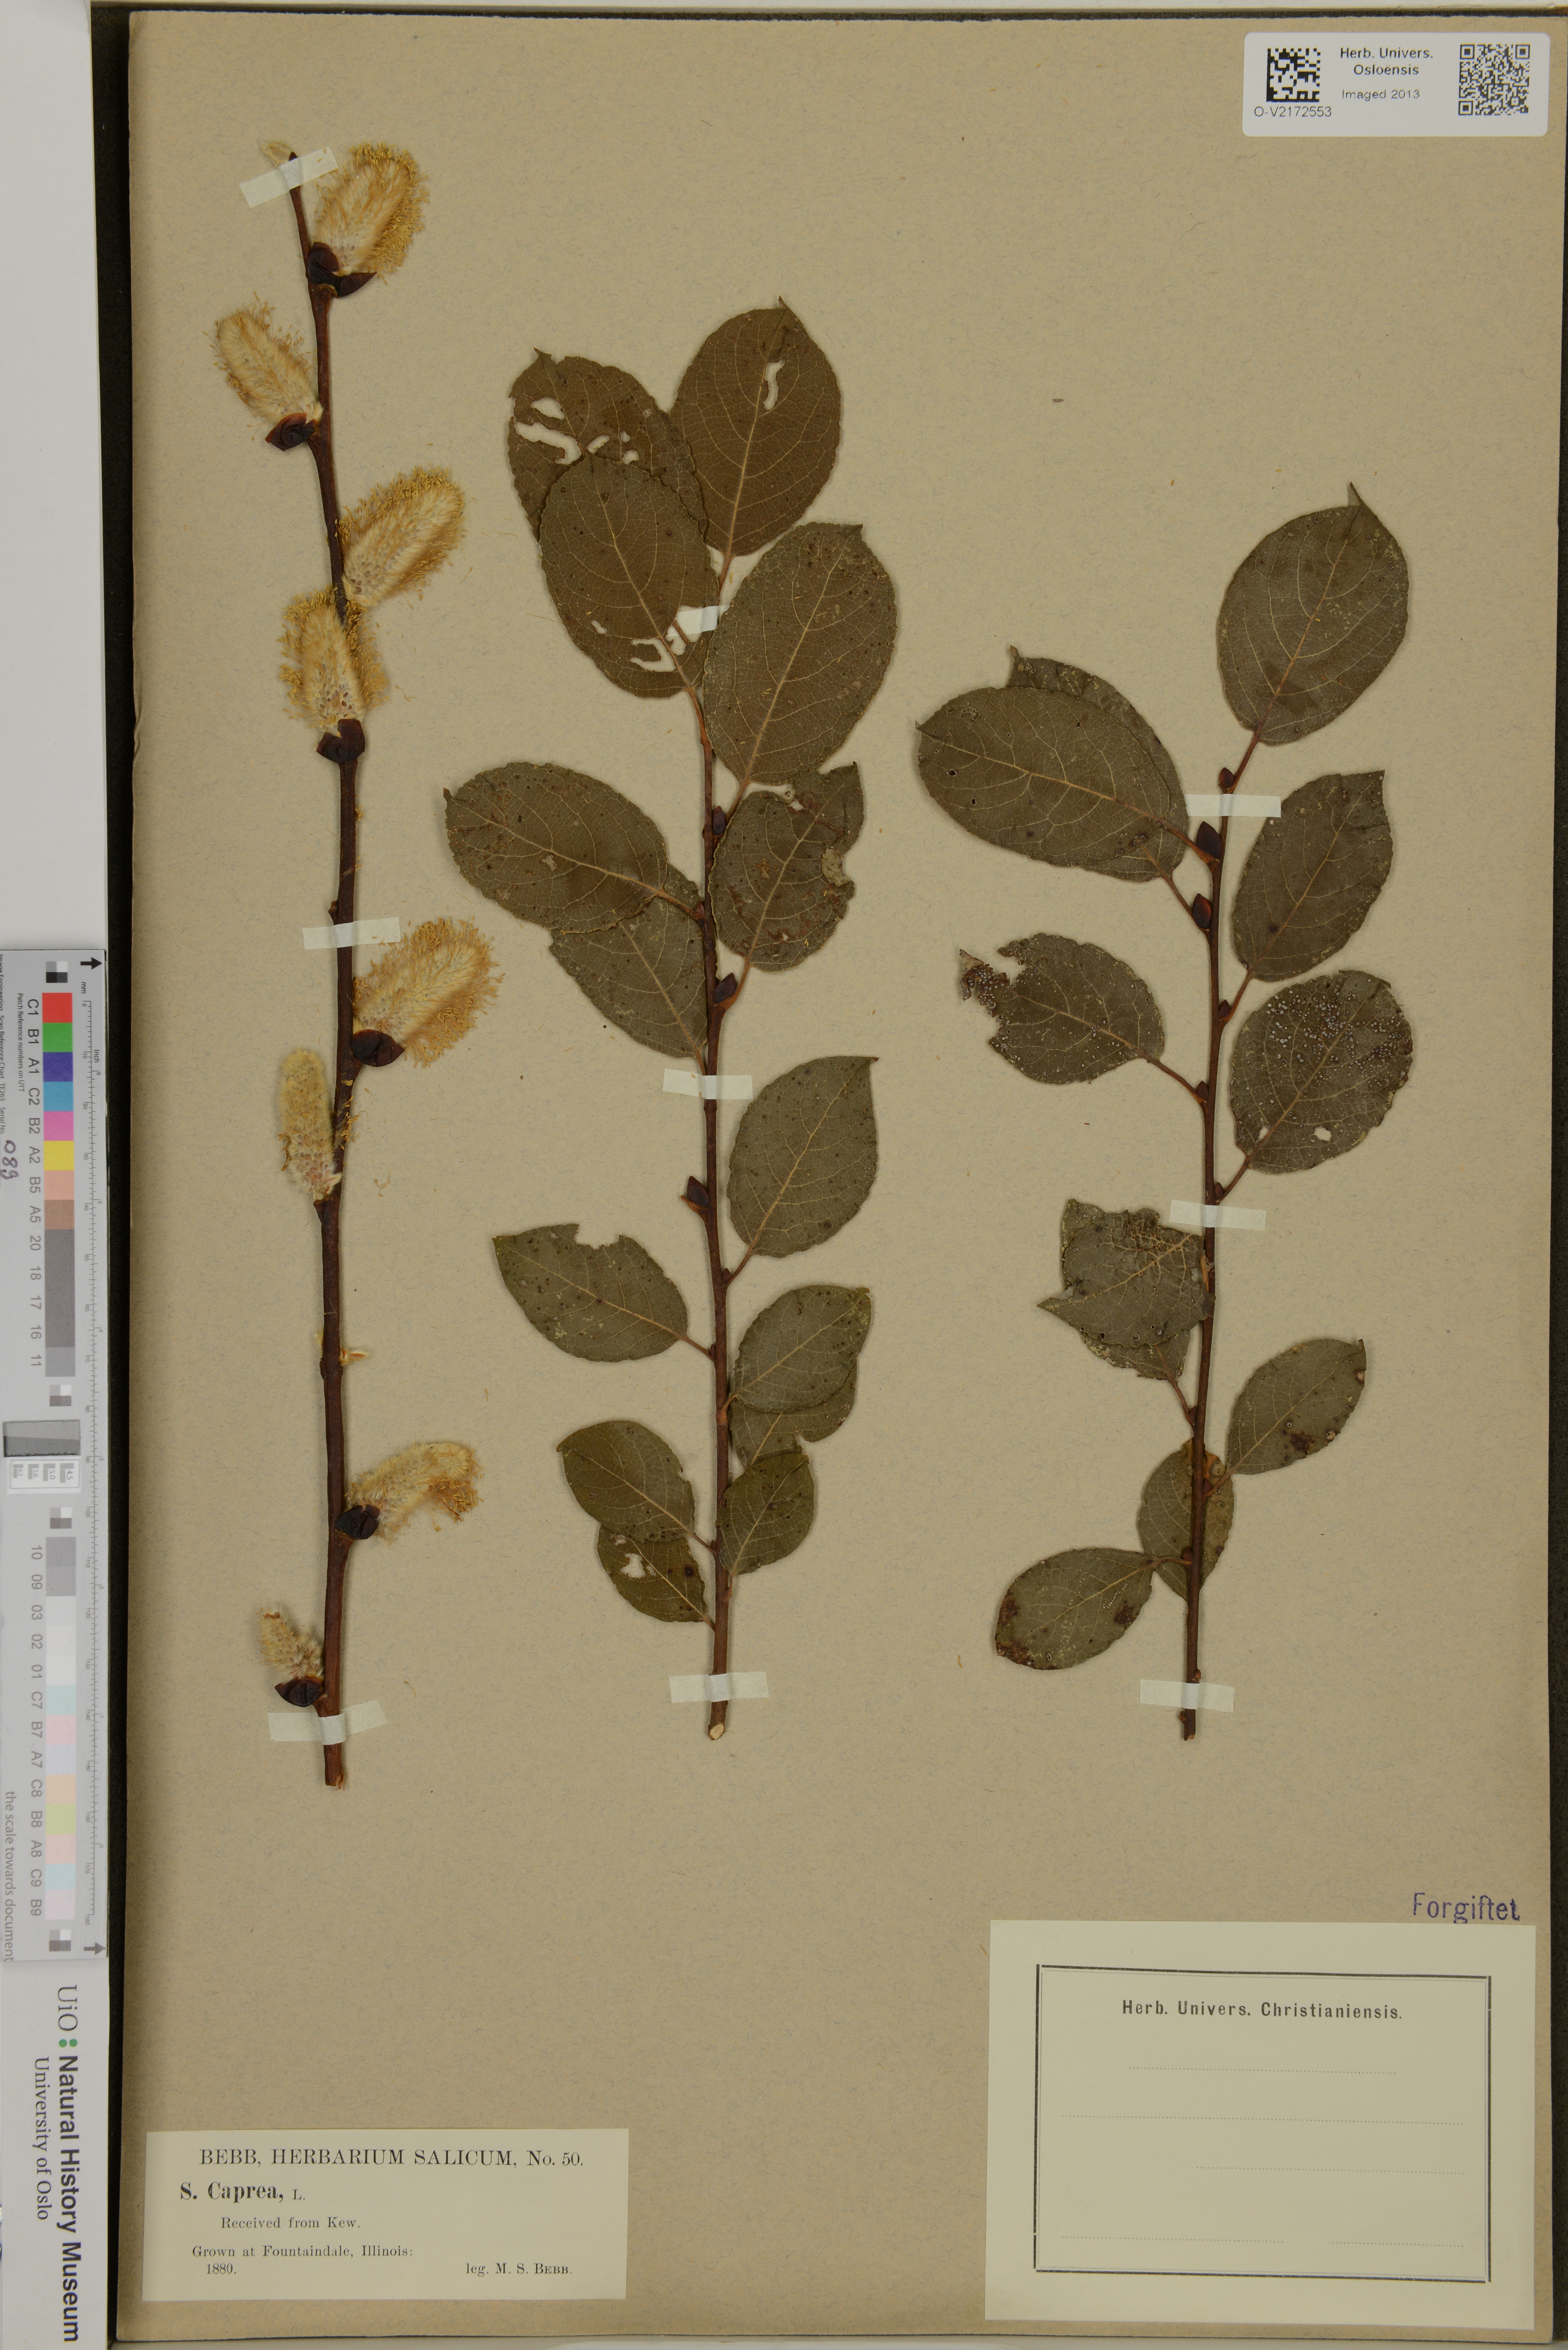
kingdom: Plantae
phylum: Tracheophyta
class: Magnoliopsida
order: Malpighiales
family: Salicaceae
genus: Salix
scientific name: Salix caprea
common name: Goat willow
